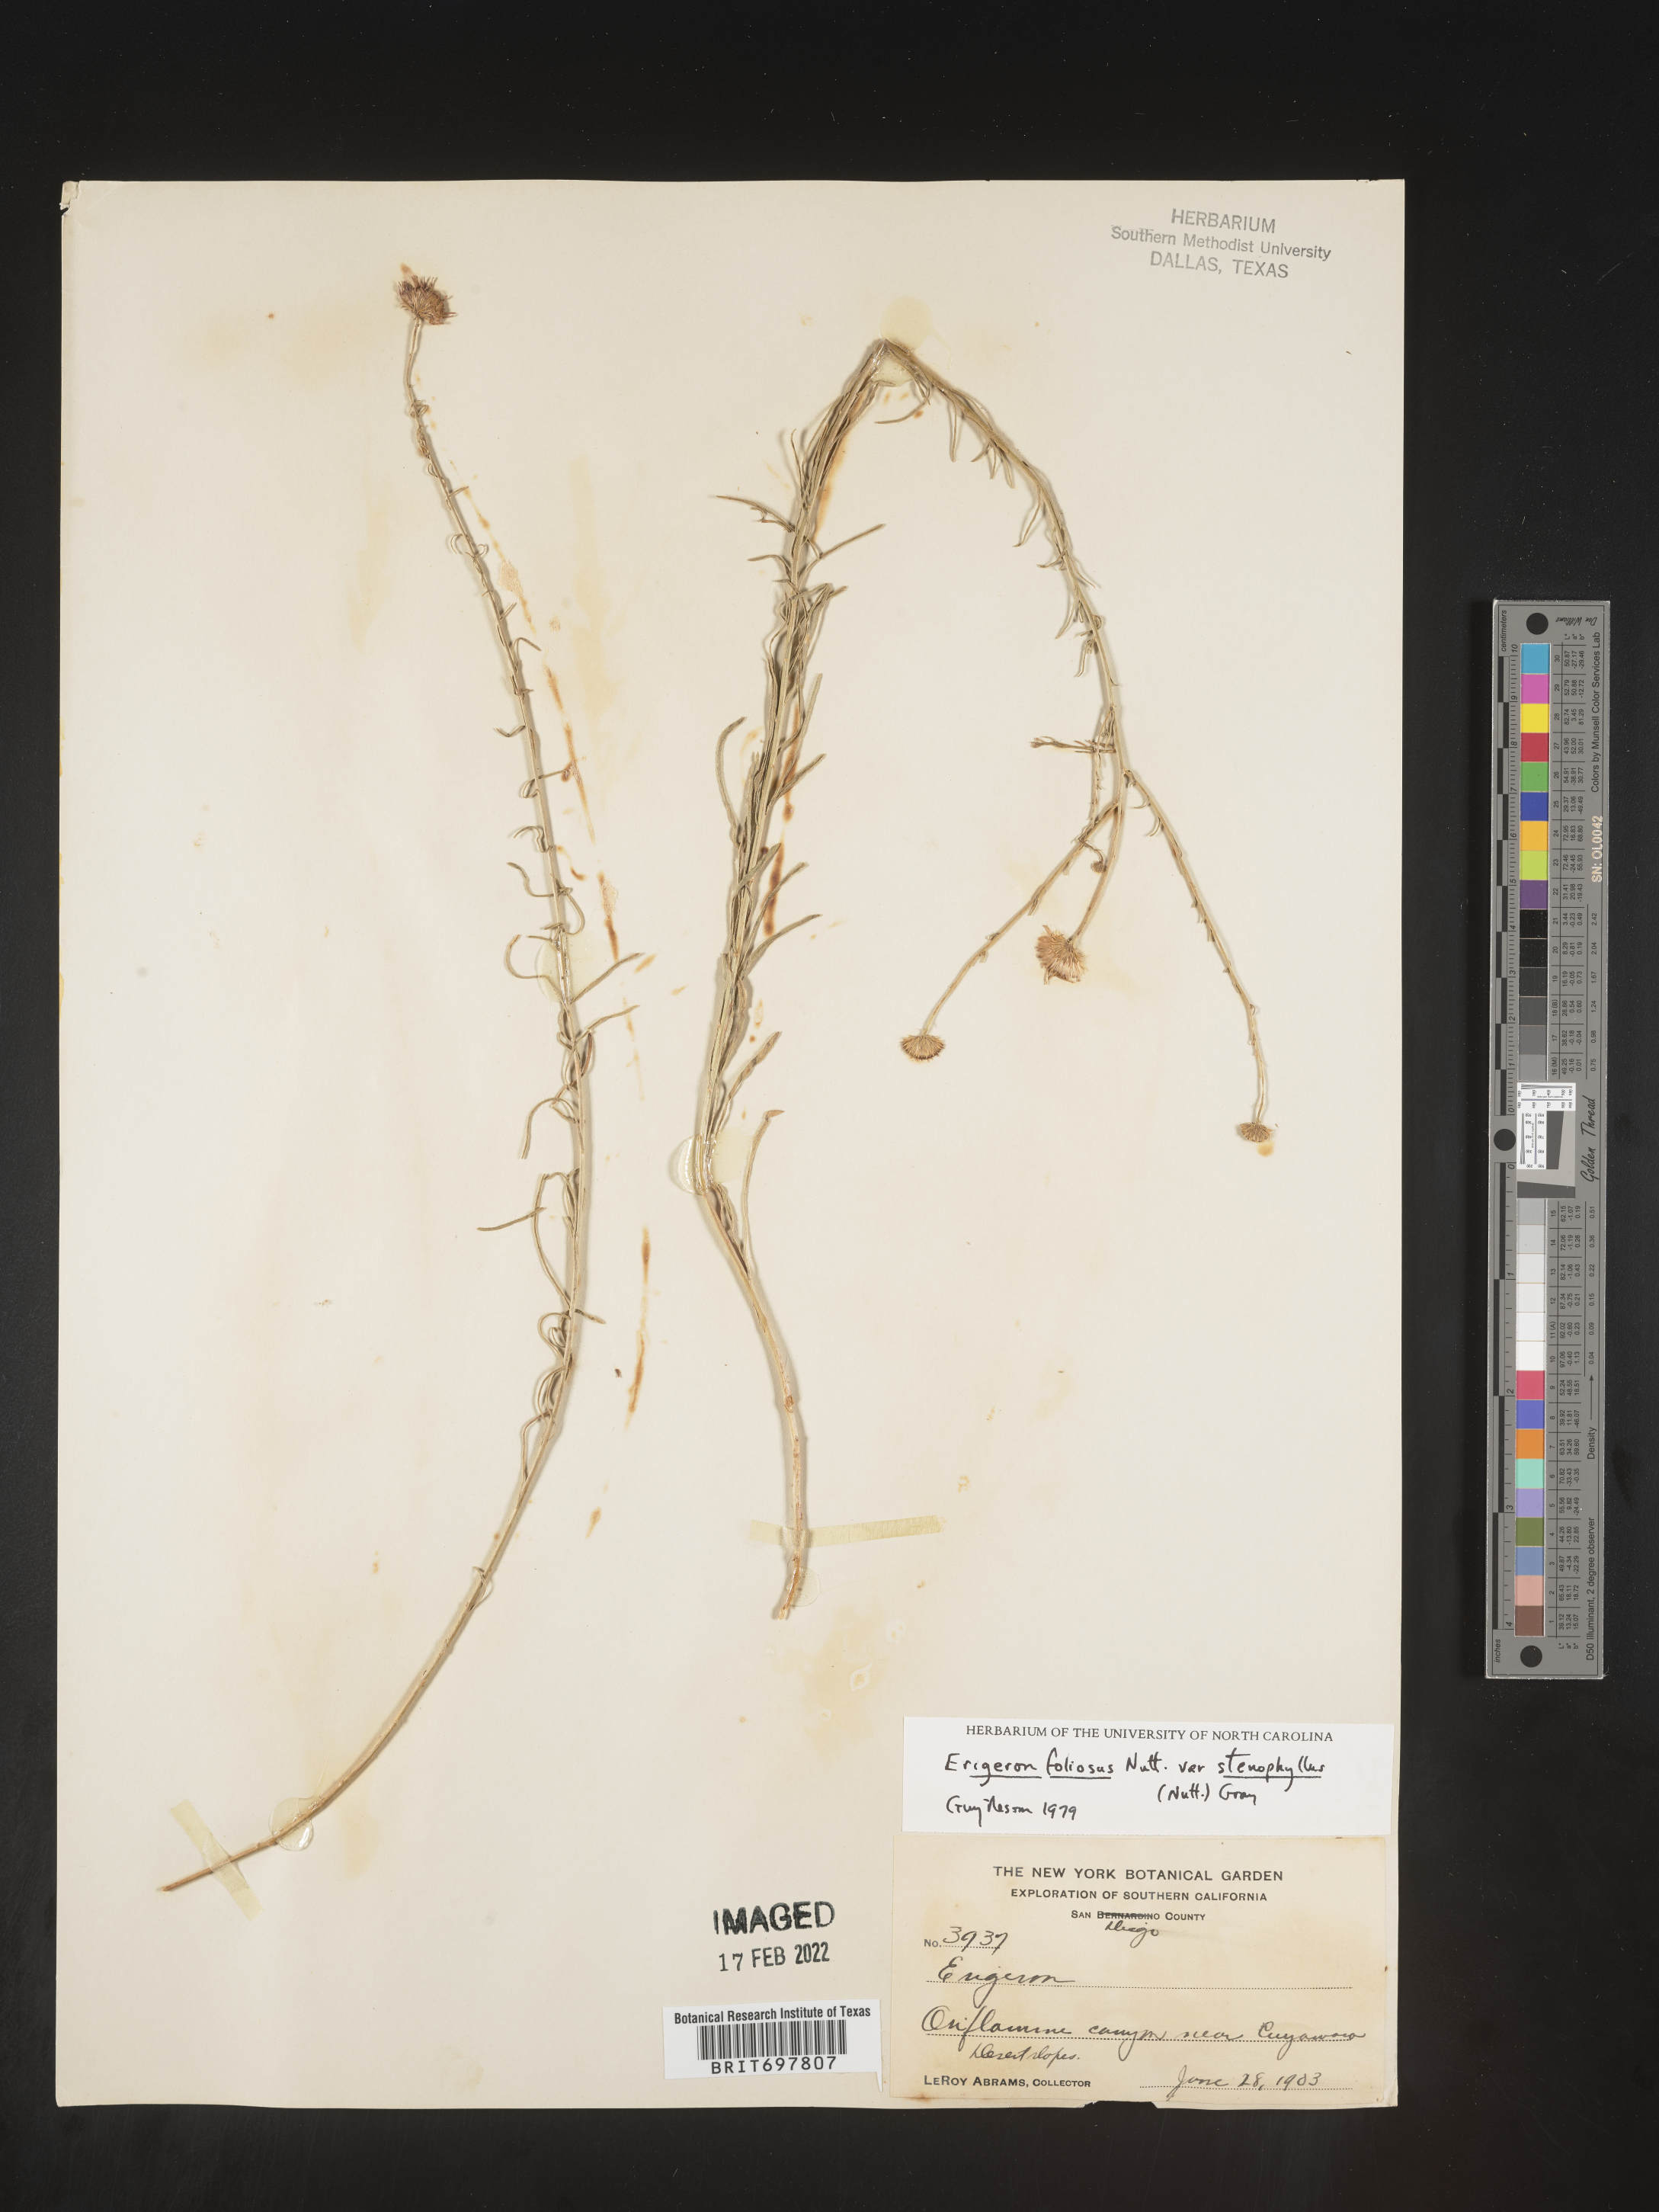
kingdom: Plantae
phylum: Tracheophyta
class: Magnoliopsida
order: Asterales
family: Asteraceae
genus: Erigeron
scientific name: Erigeron foliosus
